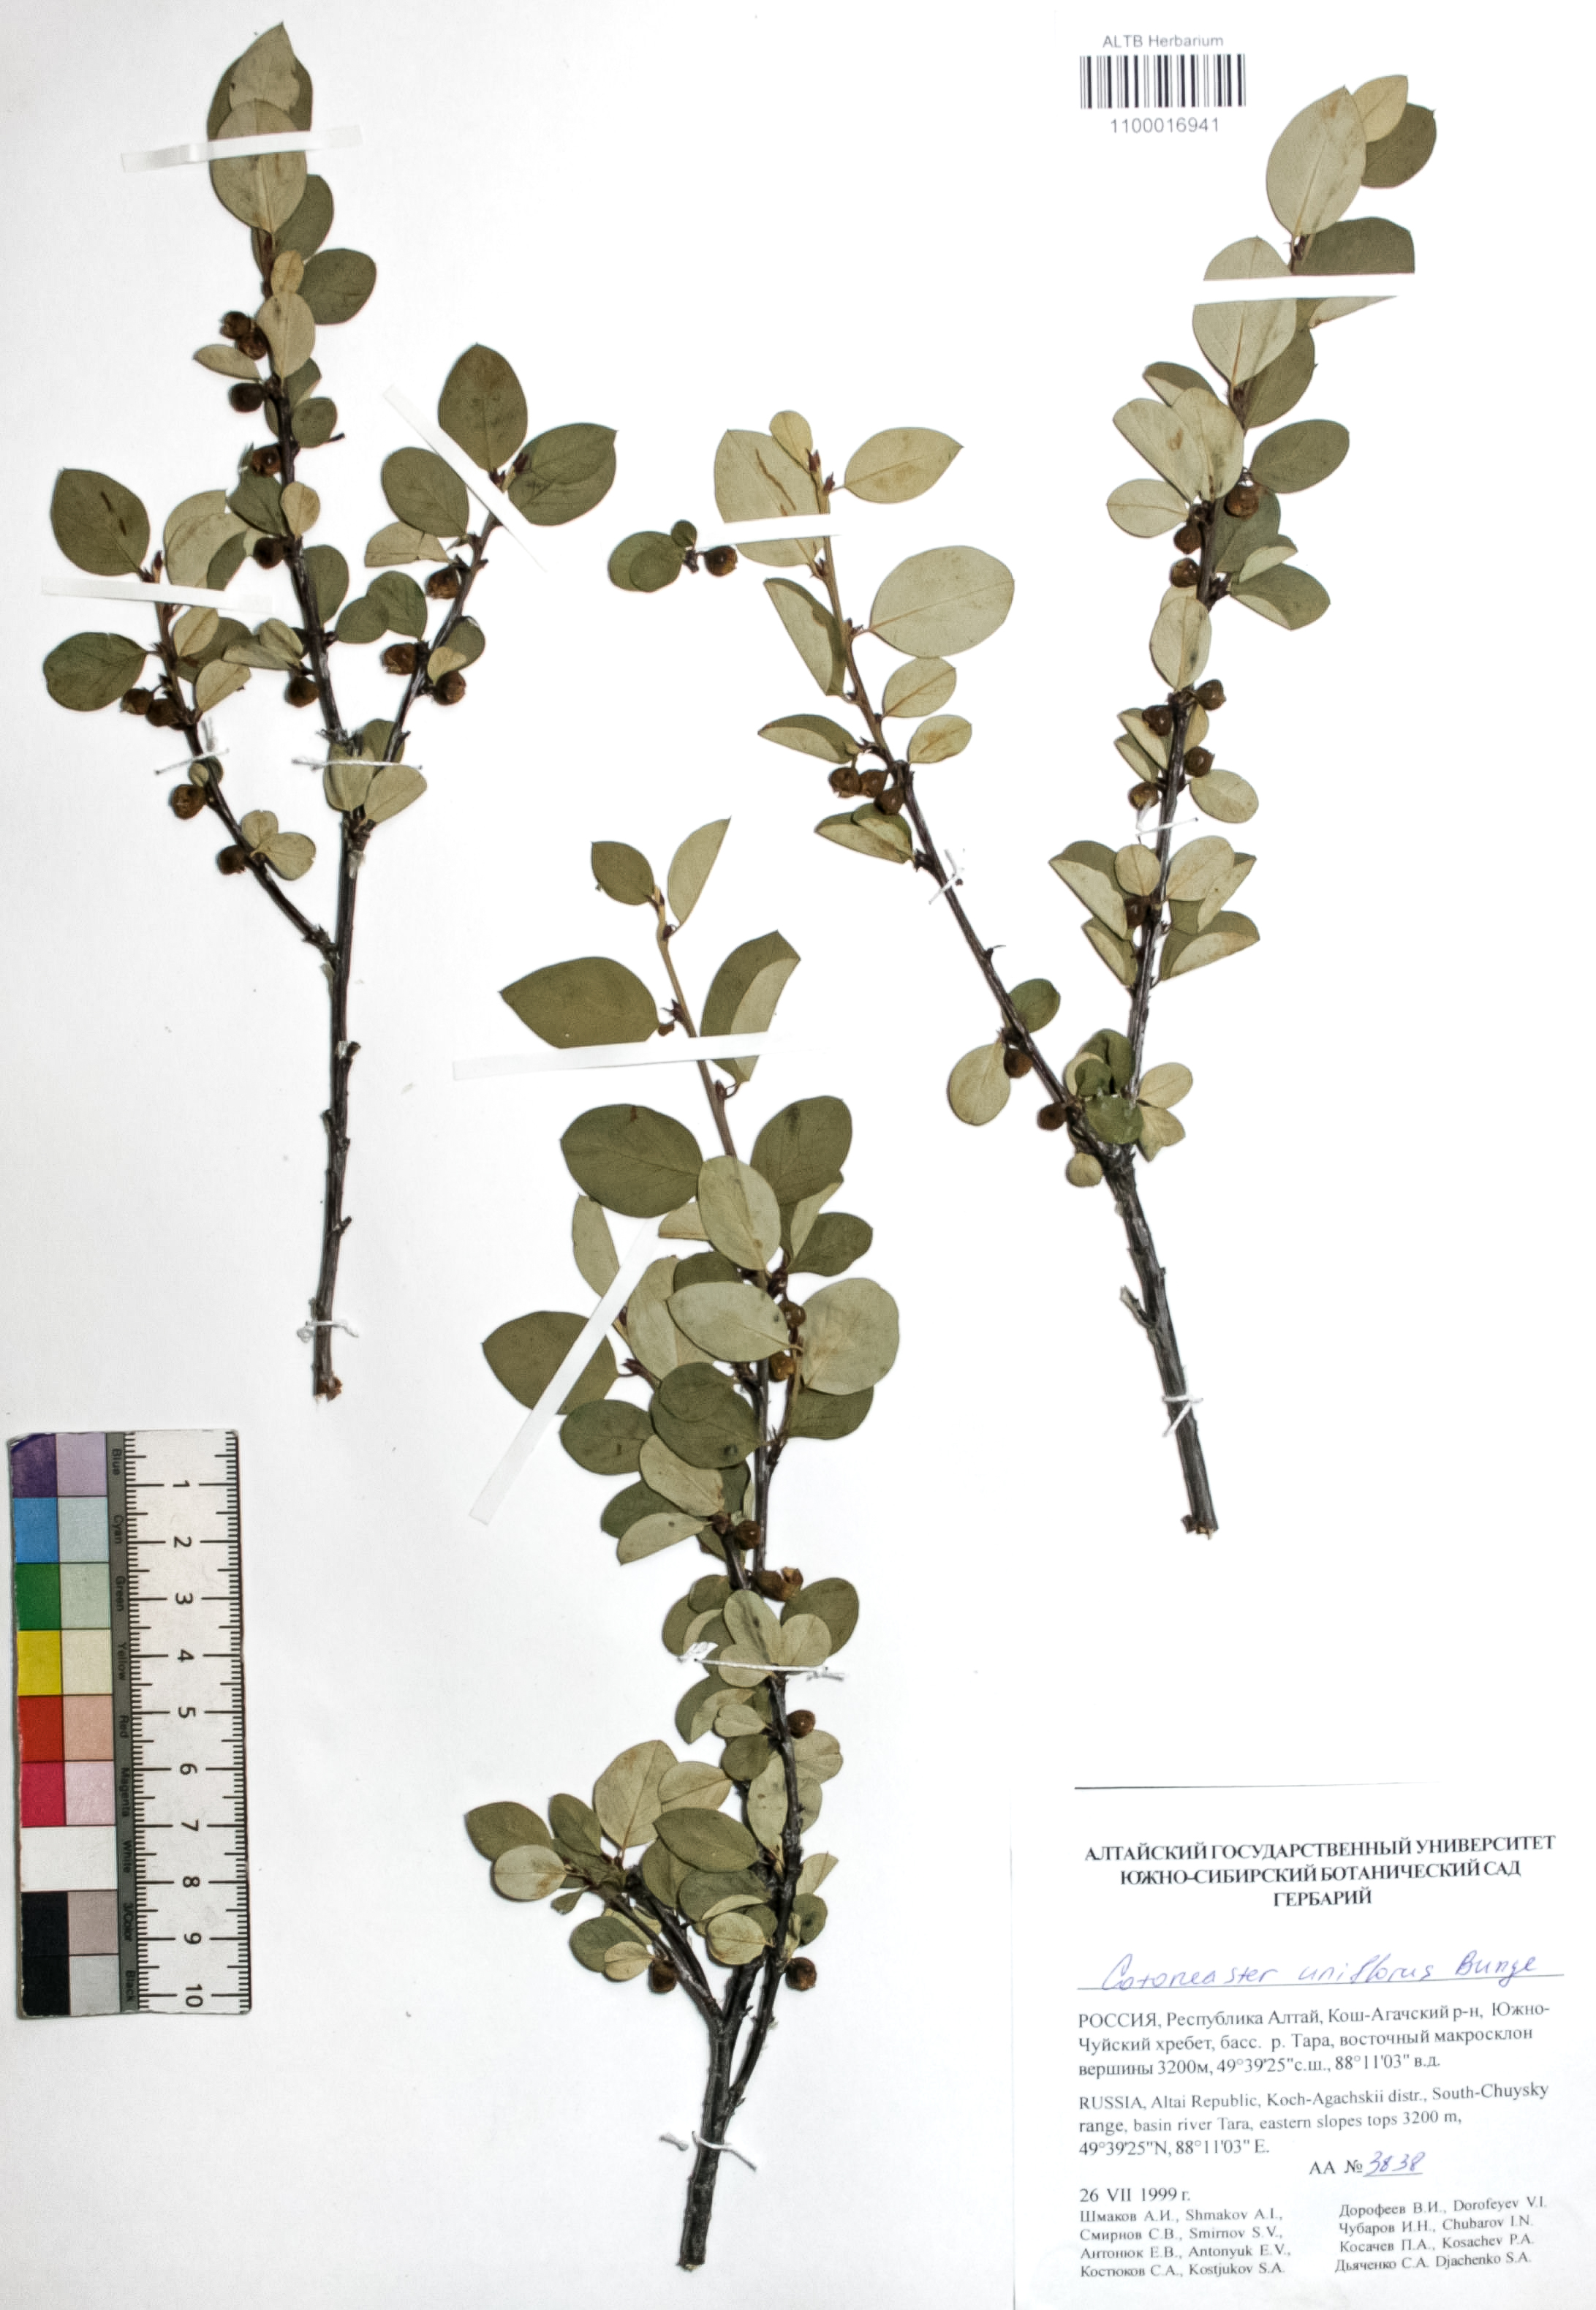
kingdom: Plantae
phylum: Tracheophyta
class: Magnoliopsida
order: Rosales
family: Rosaceae
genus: Cotoneaster
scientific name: Cotoneaster uniflorus
